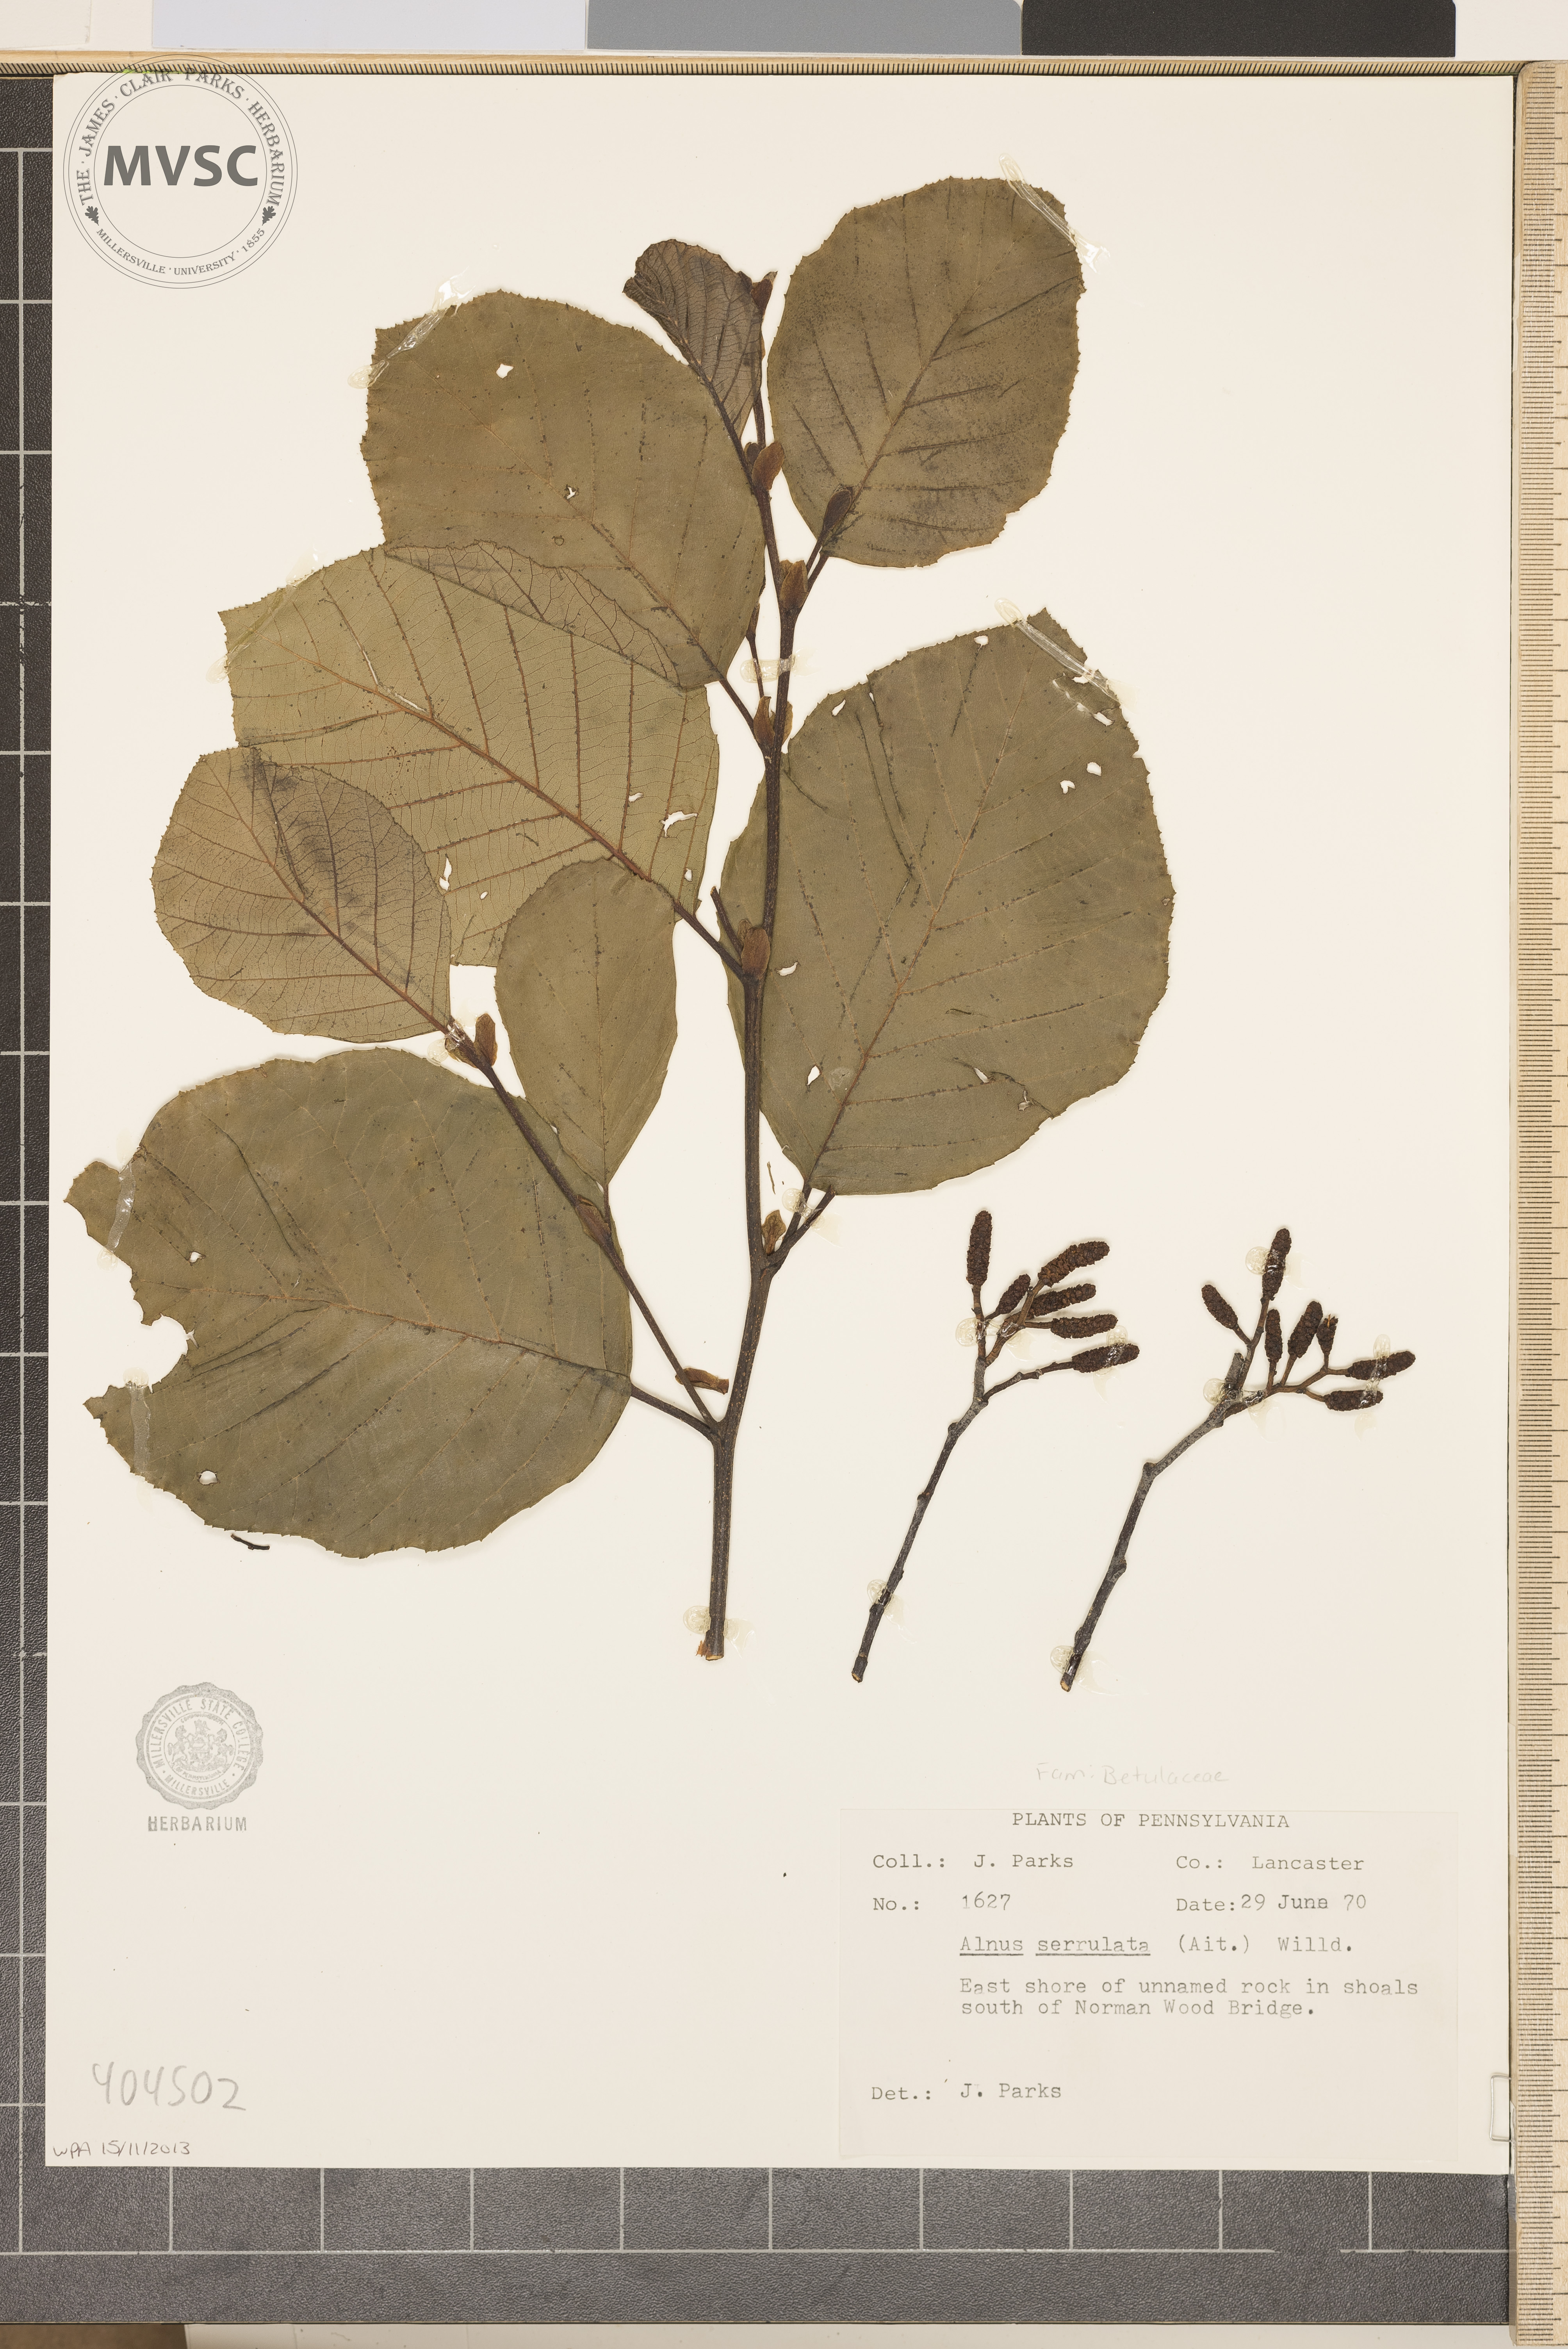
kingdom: Plantae
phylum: Tracheophyta
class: Magnoliopsida
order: Fagales
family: Betulaceae
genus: Alnus
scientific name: Alnus serrulata
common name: Hazel alder
